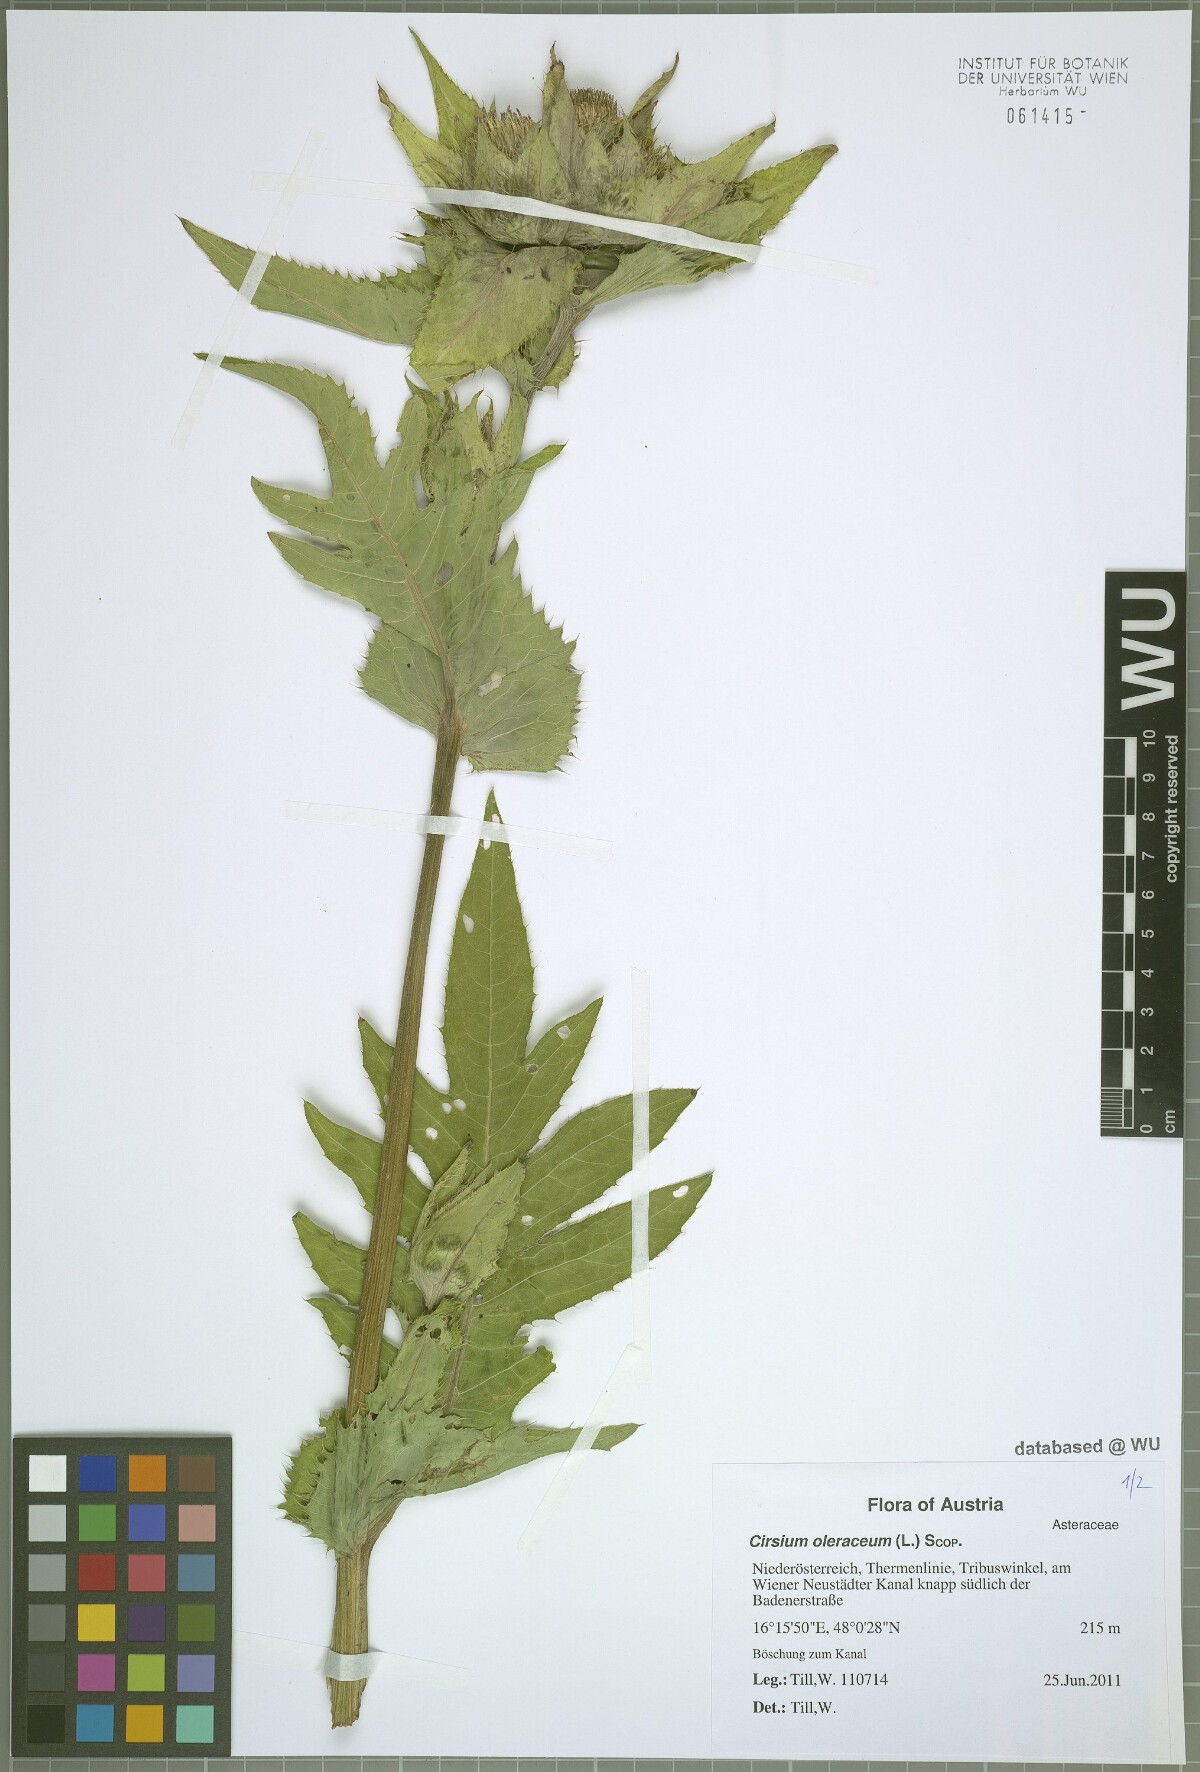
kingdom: Plantae
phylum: Tracheophyta
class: Magnoliopsida
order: Asterales
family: Asteraceae
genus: Cirsium
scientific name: Cirsium oleraceum
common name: Cabbage thistle
